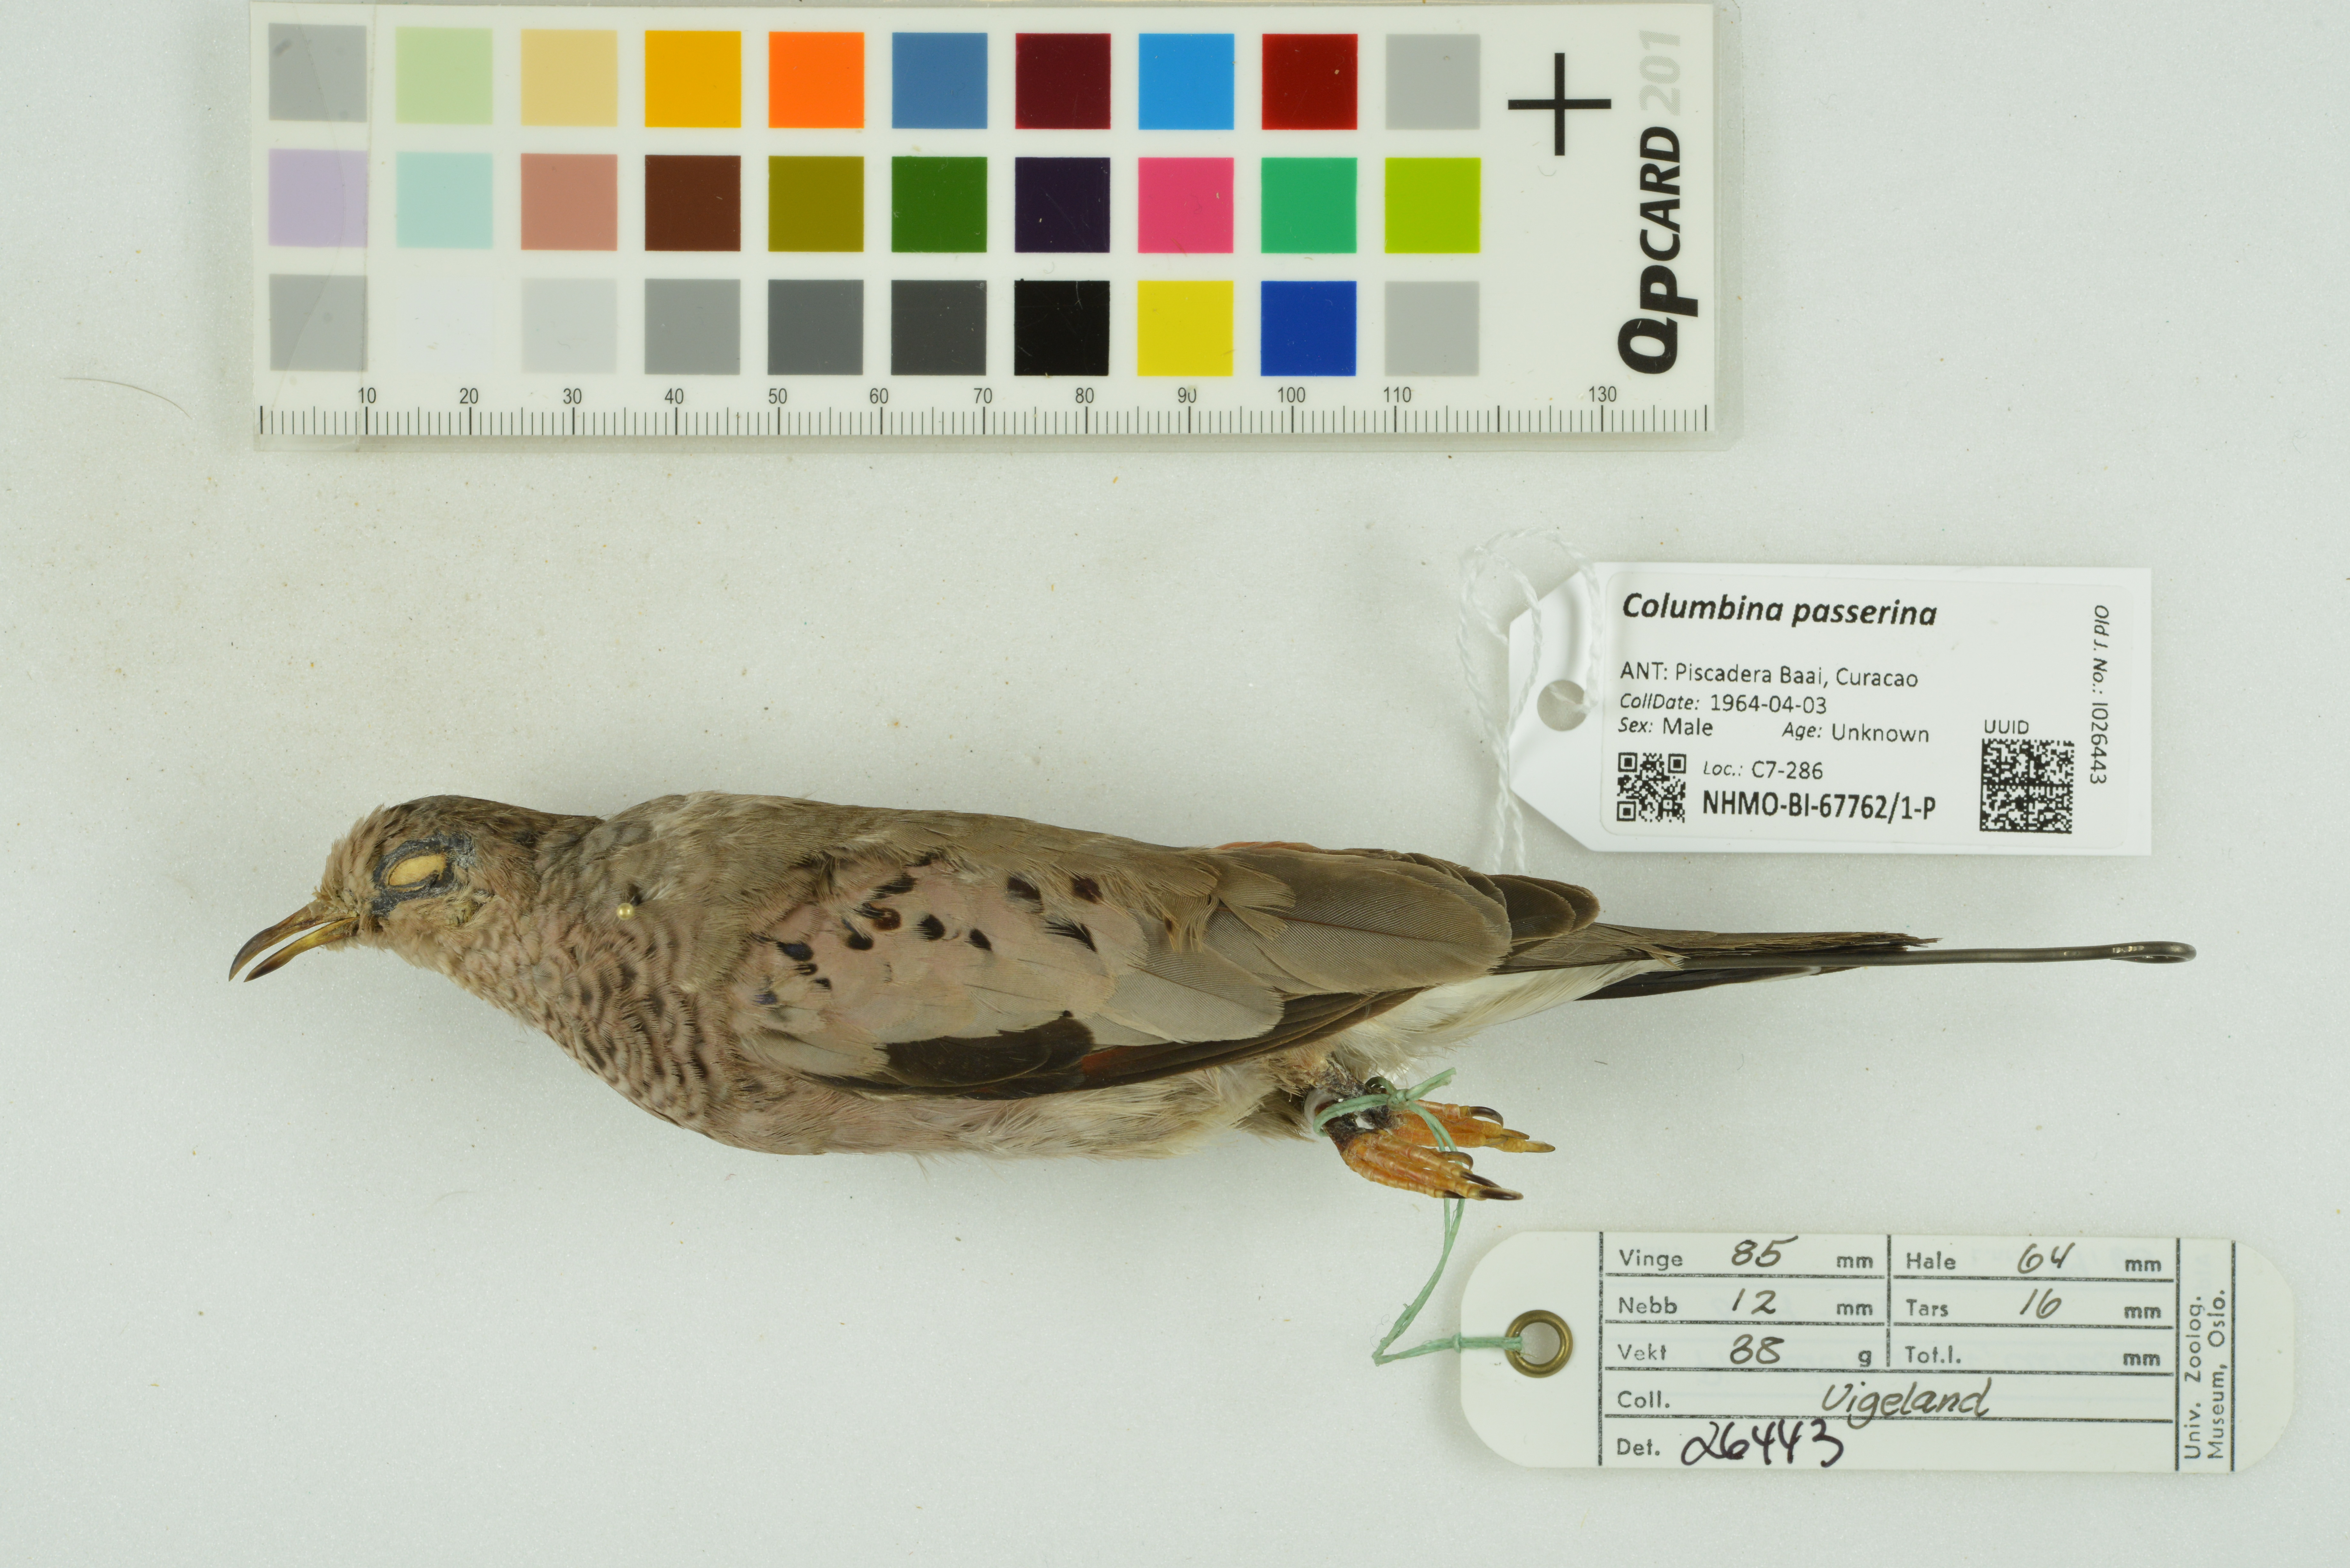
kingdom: Animalia
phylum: Chordata
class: Aves
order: Columbiformes
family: Columbidae
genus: Columbina
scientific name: Columbina passerina
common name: Common ground-dove
